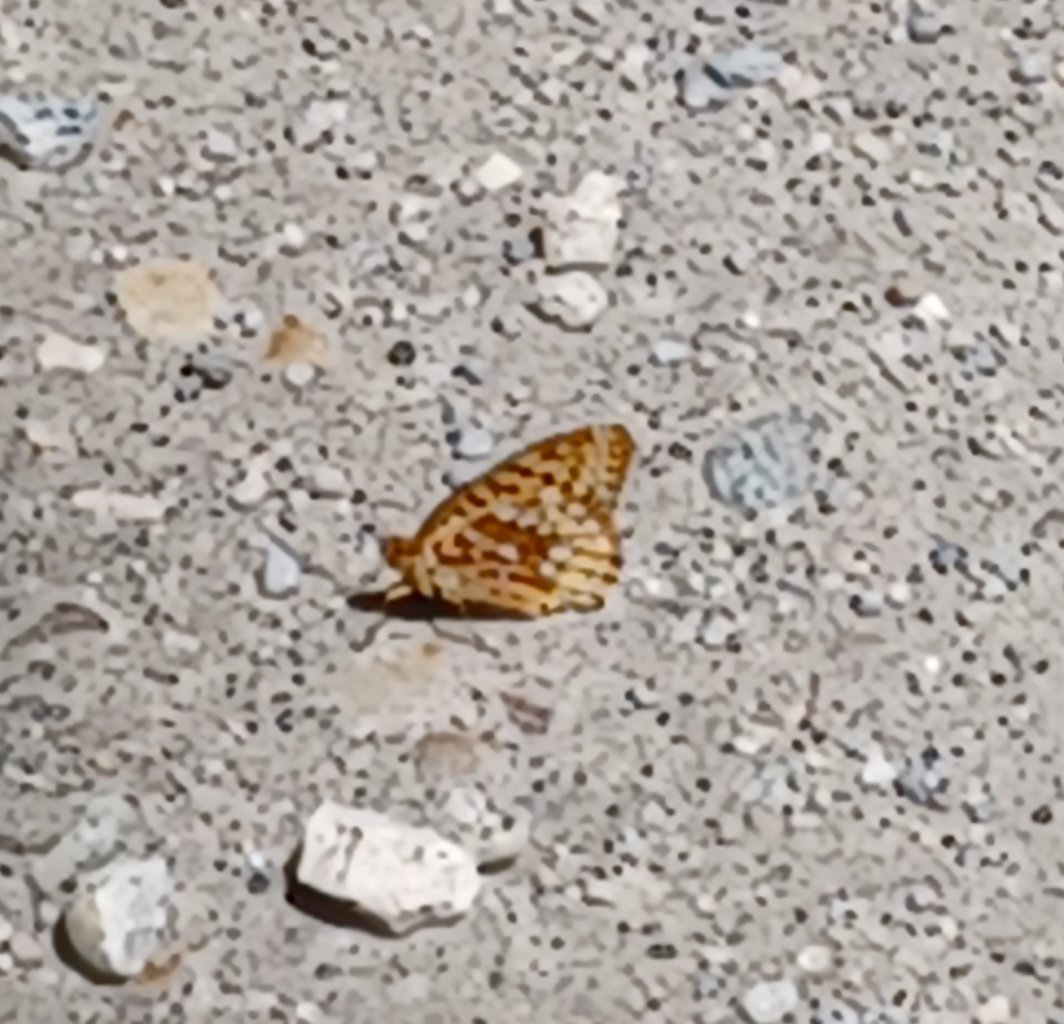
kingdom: Animalia
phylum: Arthropoda
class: Insecta
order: Lepidoptera
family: Nymphalidae
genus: Speyeria
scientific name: Speyeria cybele
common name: Great Spangled Fritillary
